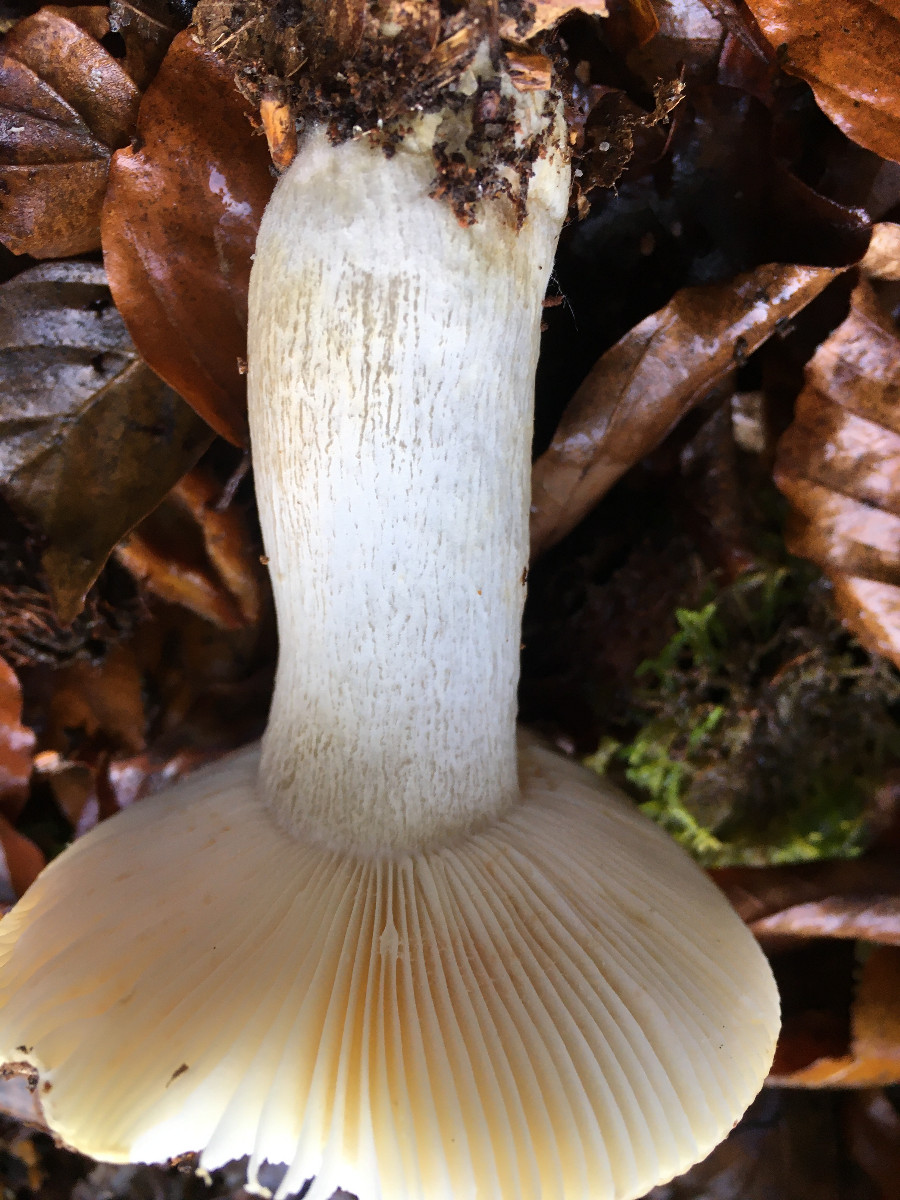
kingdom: Fungi
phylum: Basidiomycota
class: Agaricomycetes
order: Russulales
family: Russulaceae
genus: Russula
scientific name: Russula
